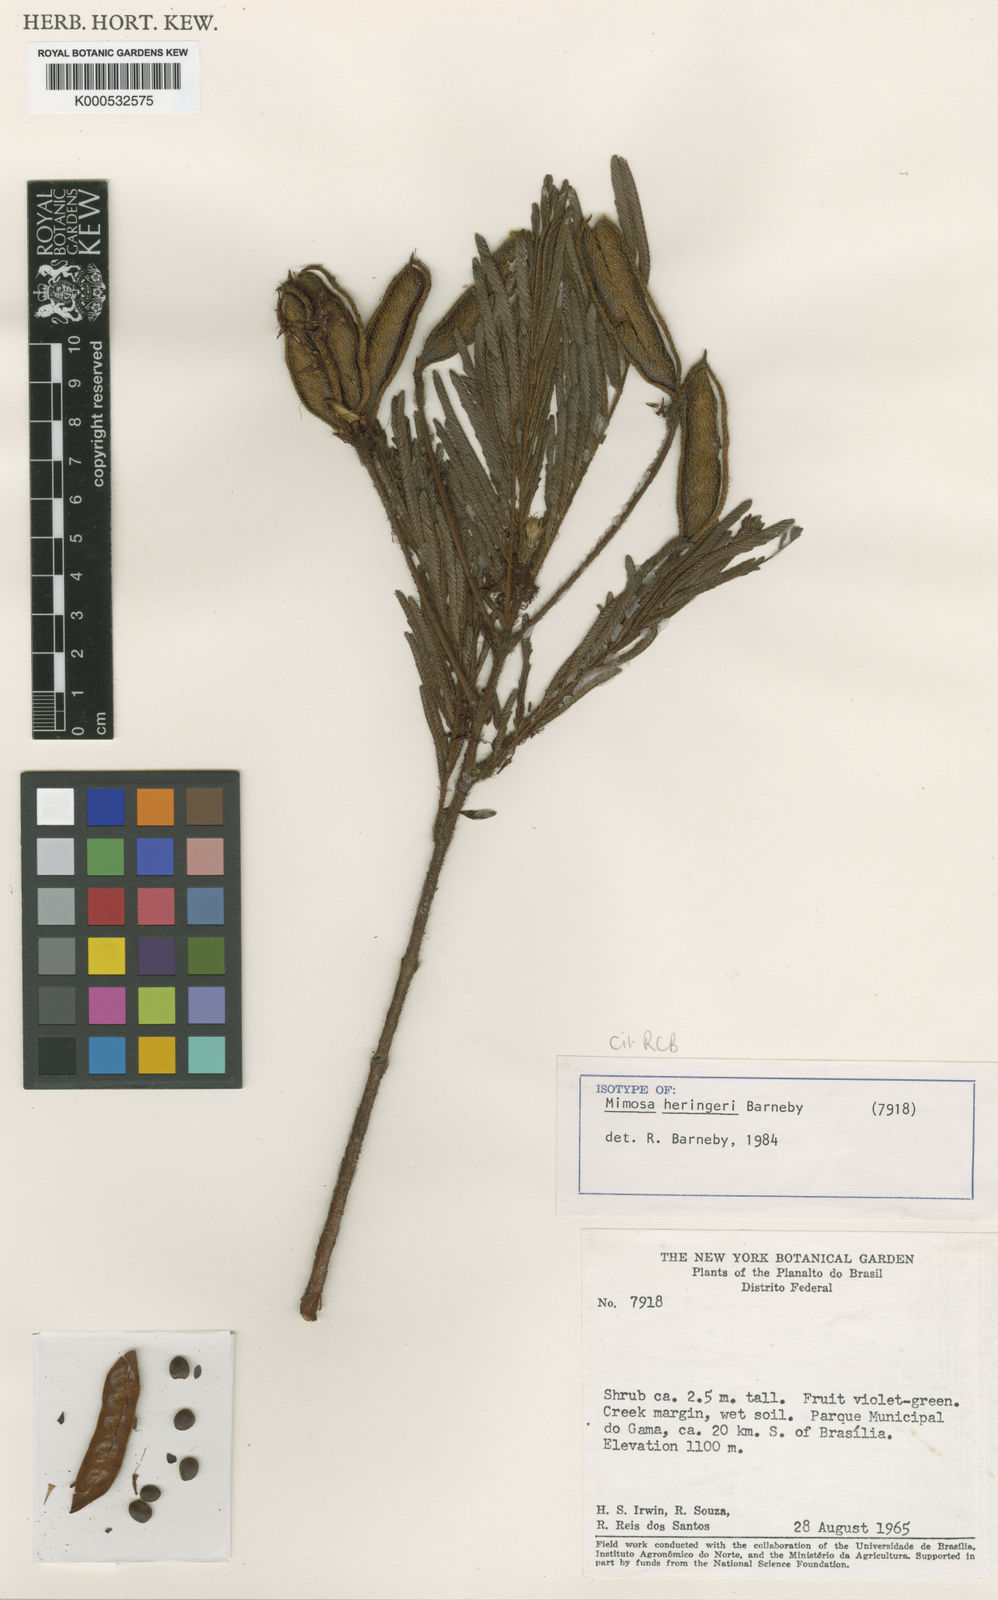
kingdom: Plantae
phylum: Tracheophyta
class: Magnoliopsida
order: Fabales
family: Fabaceae
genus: Mimosa
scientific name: Mimosa heringeri
